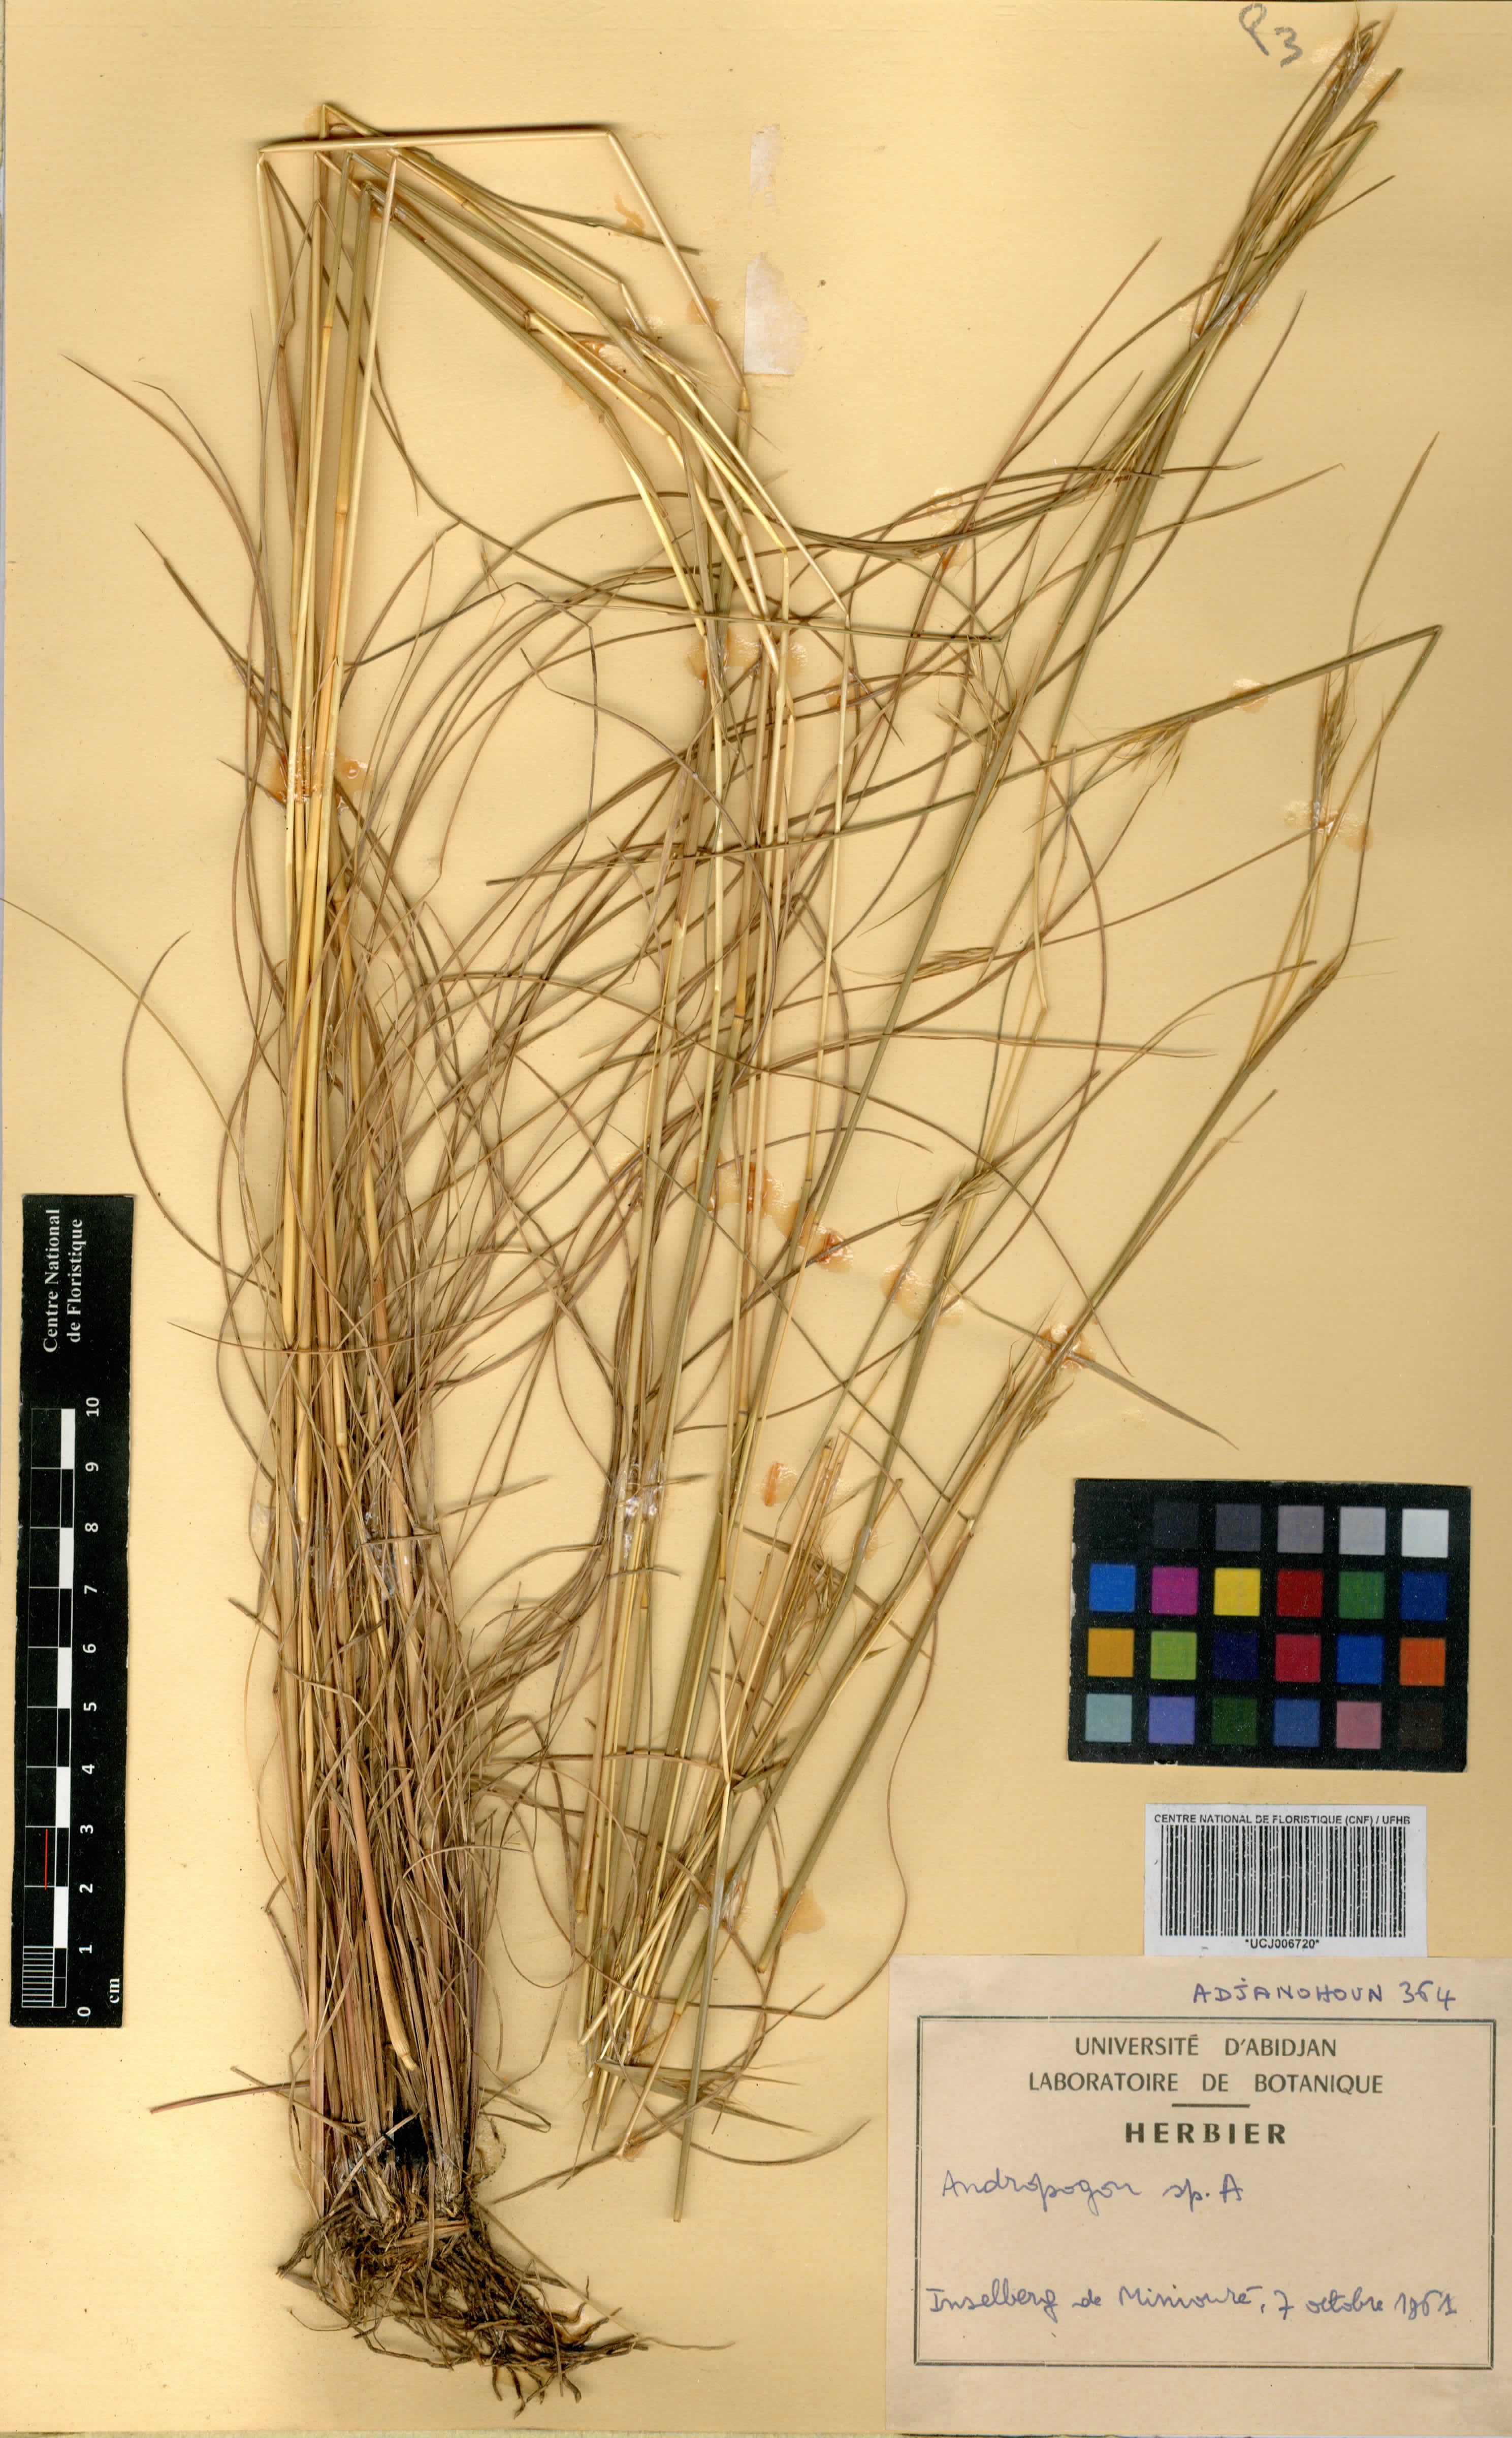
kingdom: Plantae
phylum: Tracheophyta
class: Liliopsida
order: Poales
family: Poaceae
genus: Andropogon
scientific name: Andropogon pseudapricus
